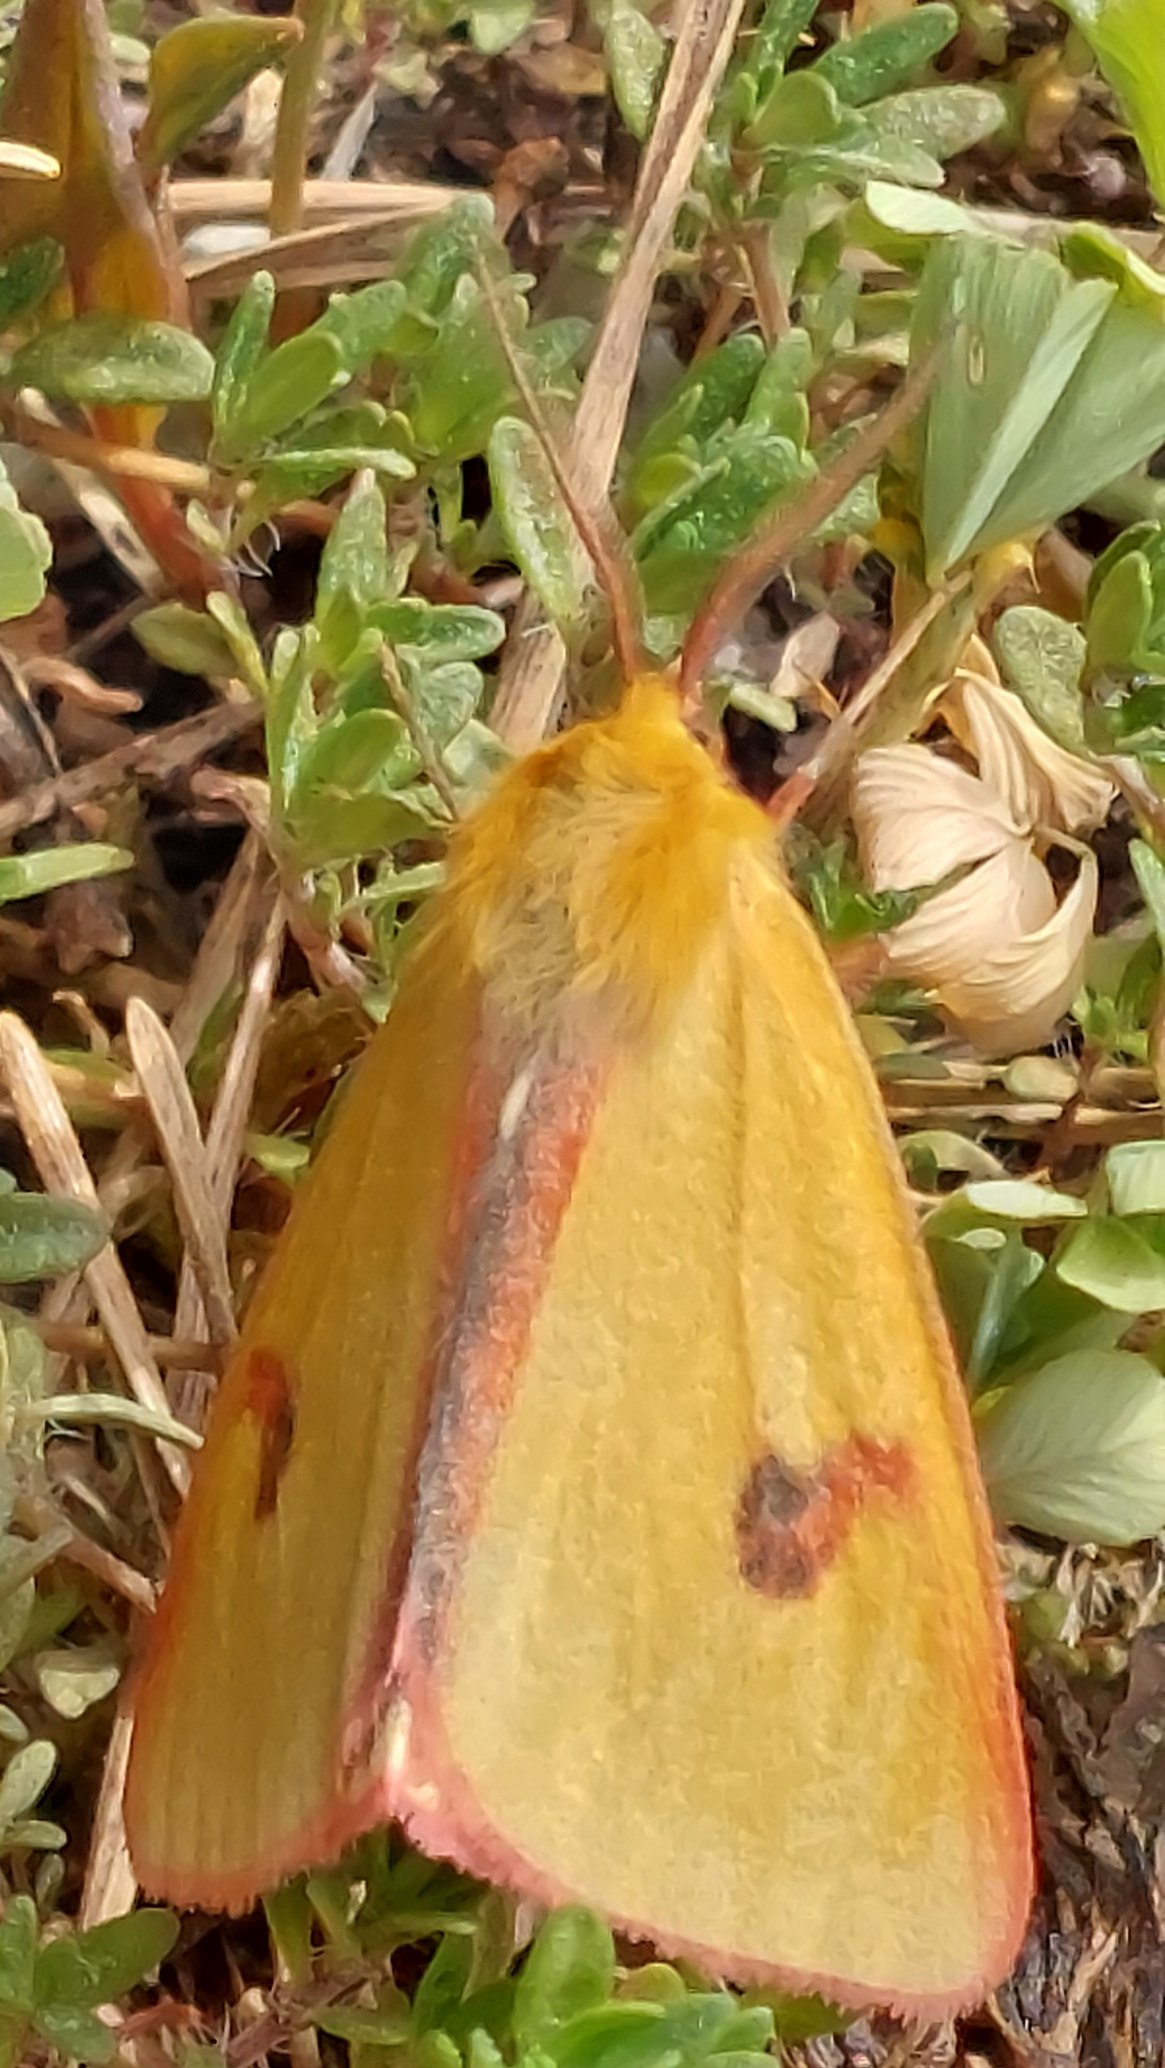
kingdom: Animalia
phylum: Arthropoda
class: Insecta
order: Lepidoptera
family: Erebidae
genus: Diacrisia
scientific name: Diacrisia sannio
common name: Rødfrynset bjørn
